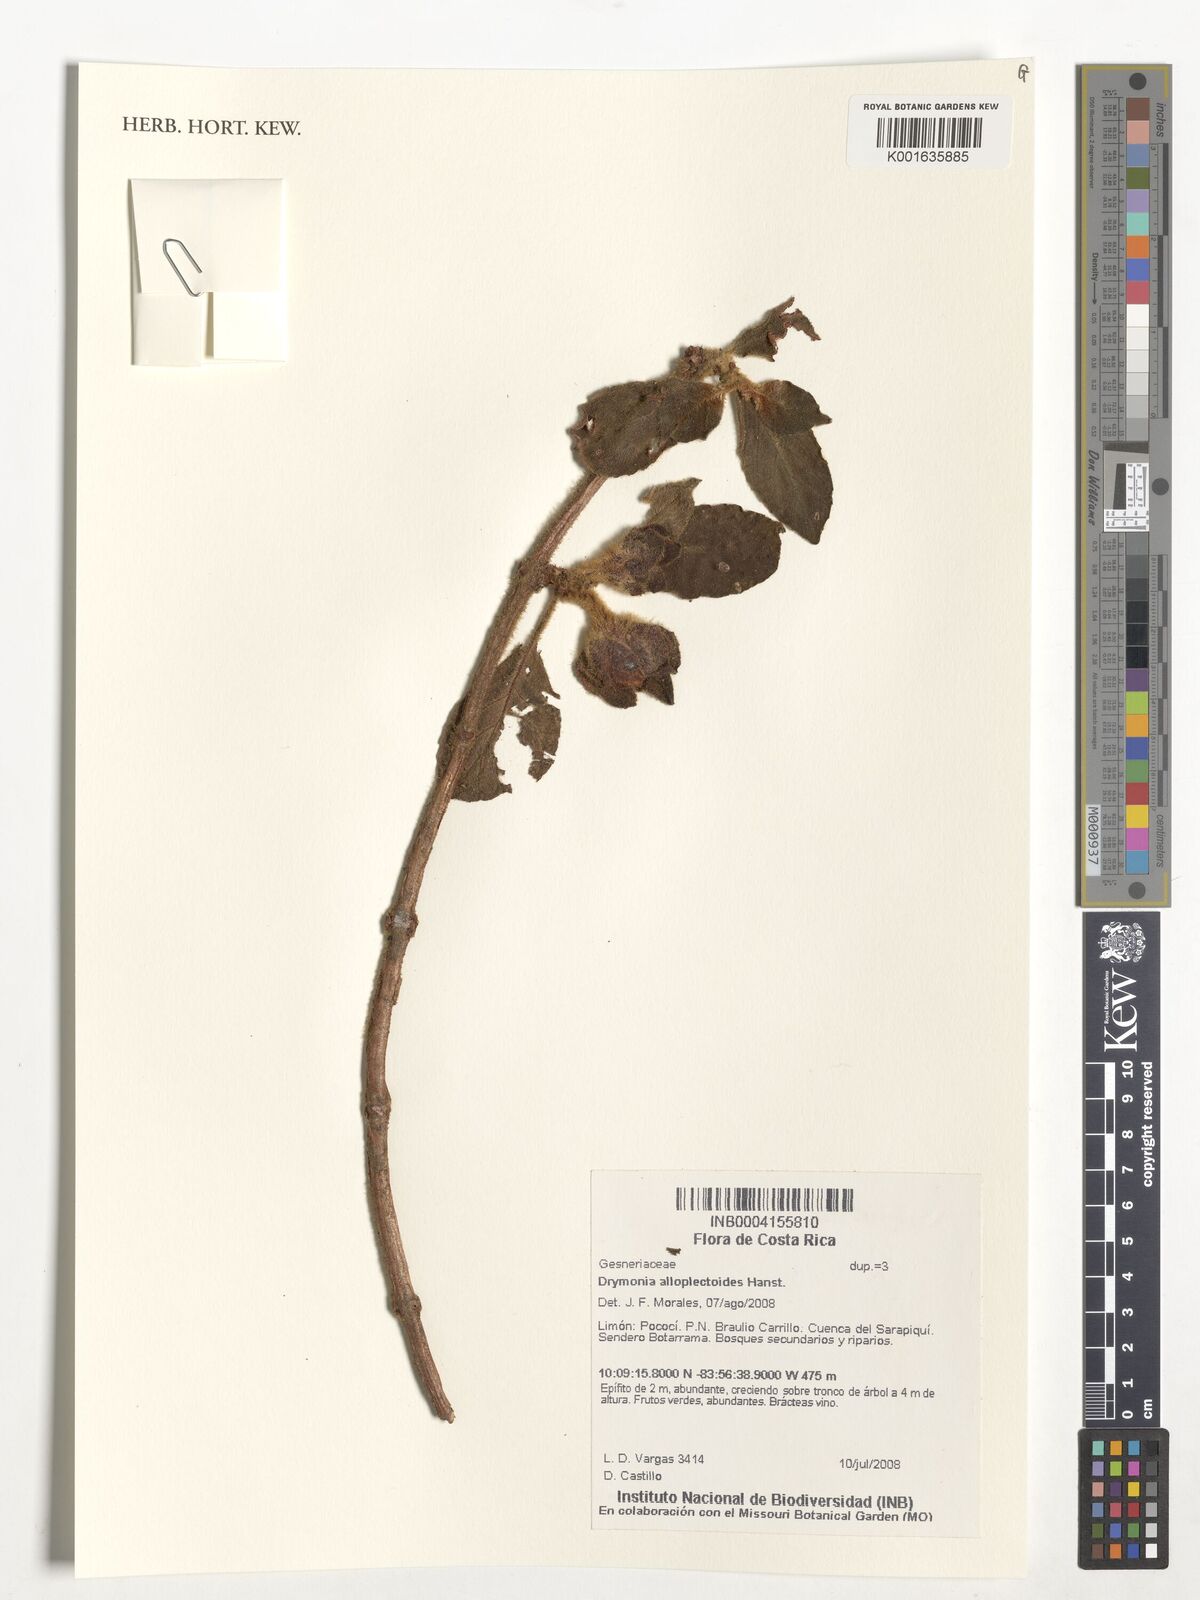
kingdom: Plantae
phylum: Tracheophyta
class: Magnoliopsida
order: Lamiales
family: Gesneriaceae
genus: Drymonia
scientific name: Drymonia alloplectoides
